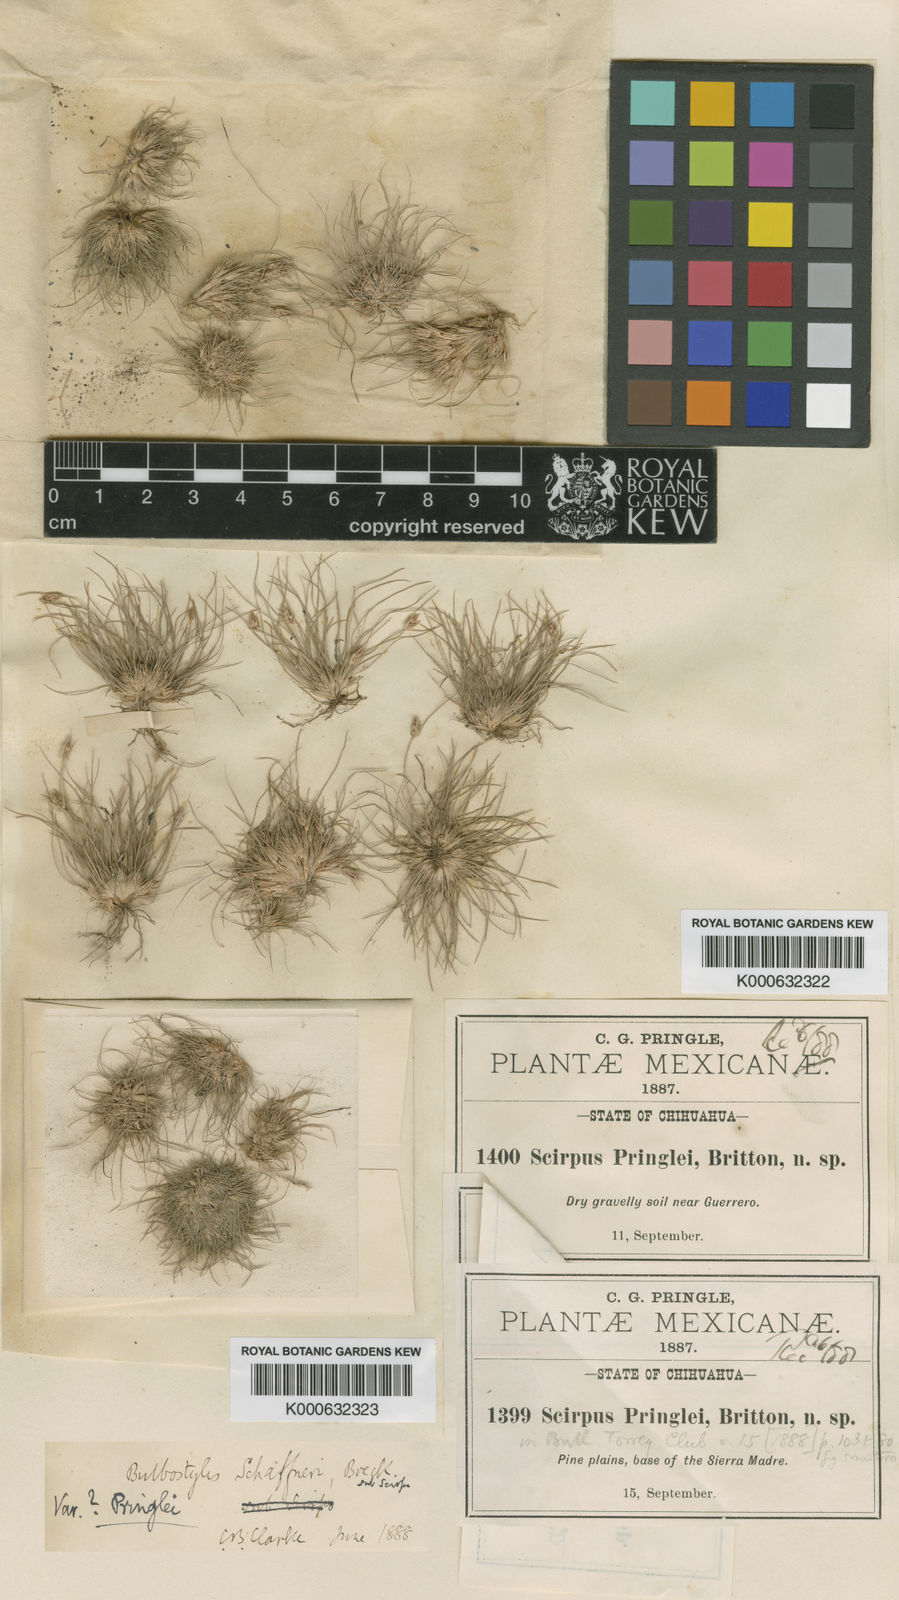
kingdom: Plantae
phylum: Tracheophyta
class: Liliopsida
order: Poales
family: Cyperaceae
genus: Bulbostylis
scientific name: Bulbostylis schaffneri
